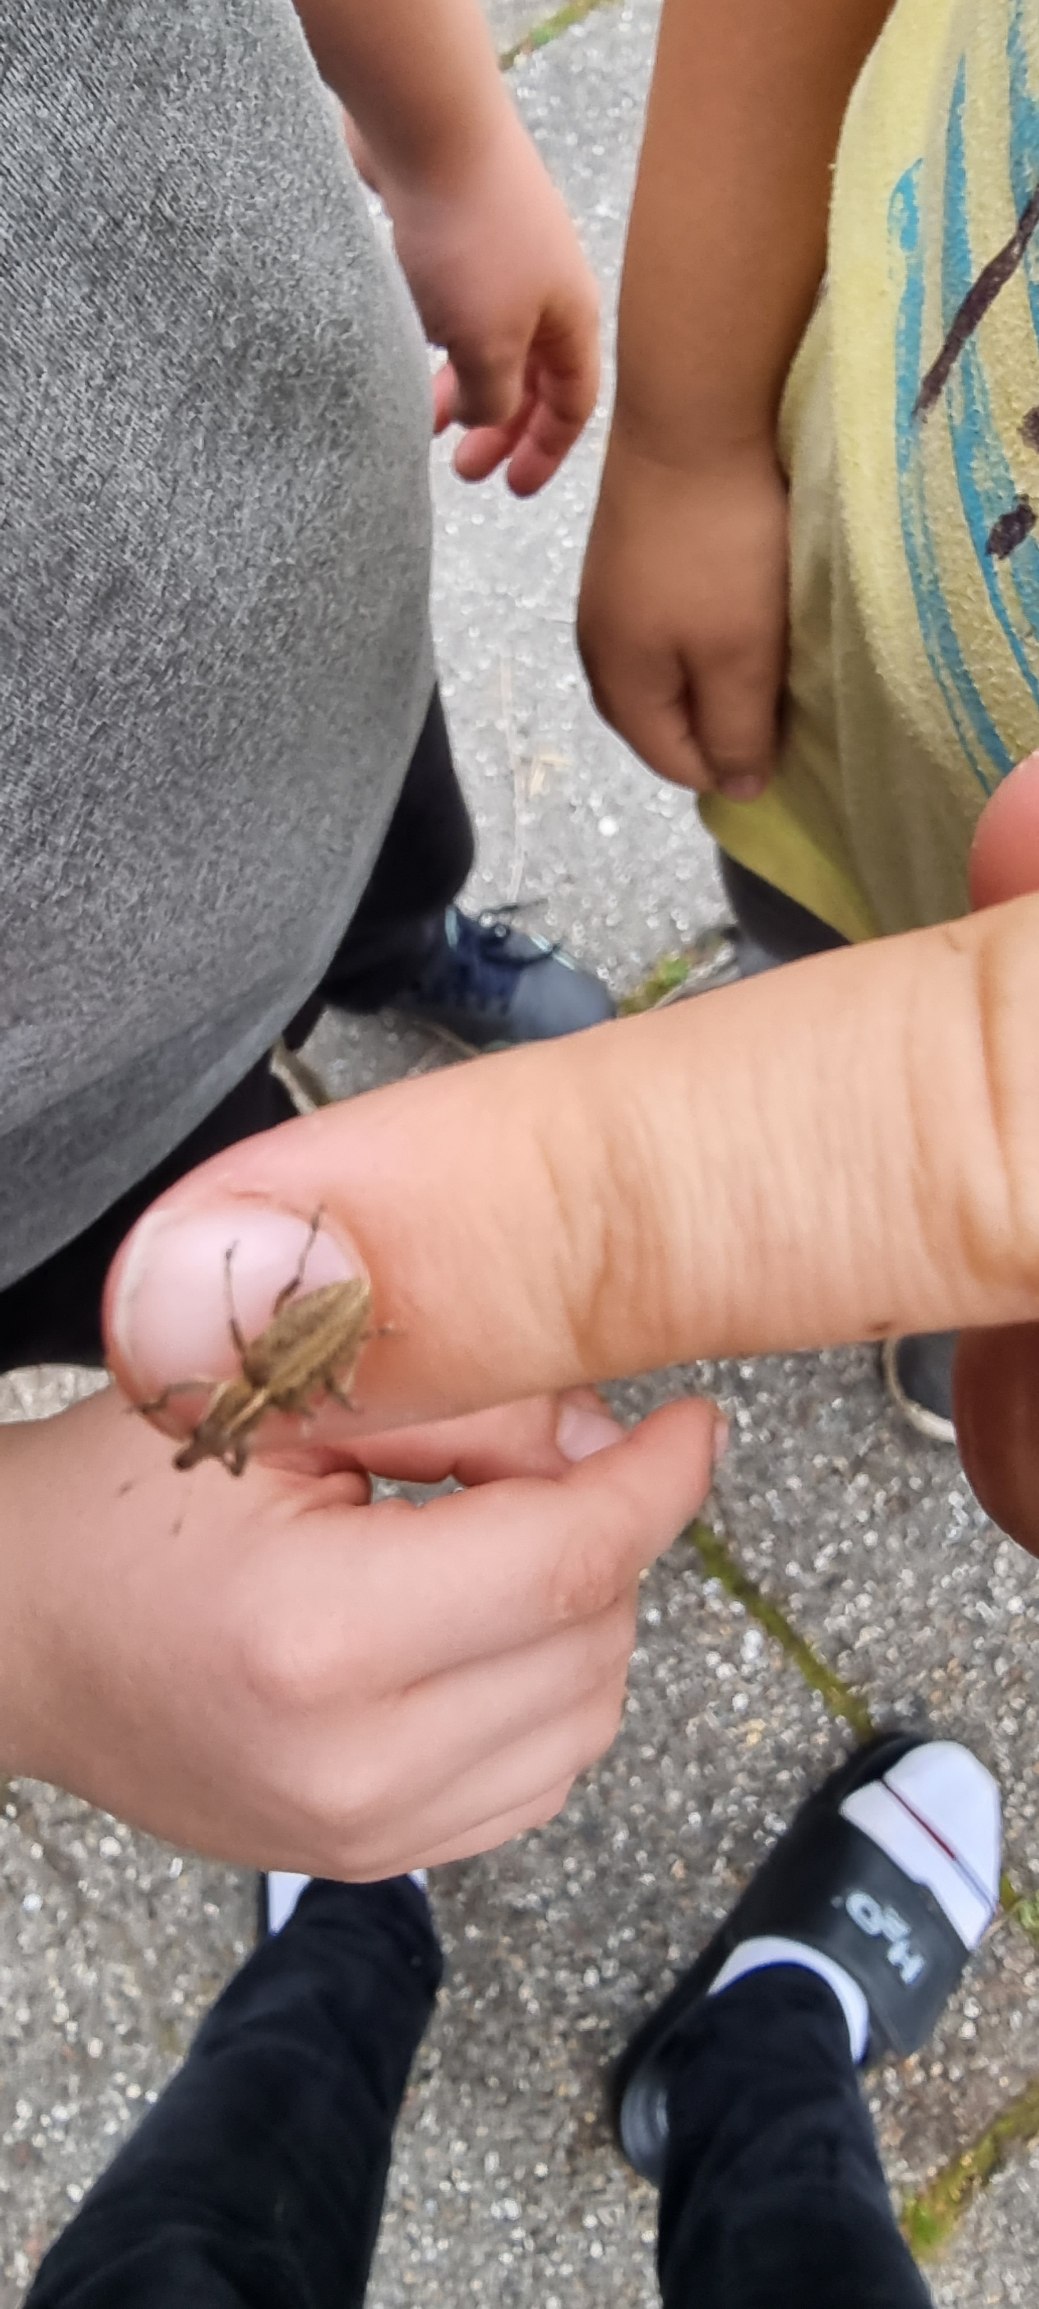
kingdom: Animalia
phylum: Arthropoda
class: Insecta
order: Coleoptera
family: Curculionidae
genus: Charagmus
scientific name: Charagmus gressorius
